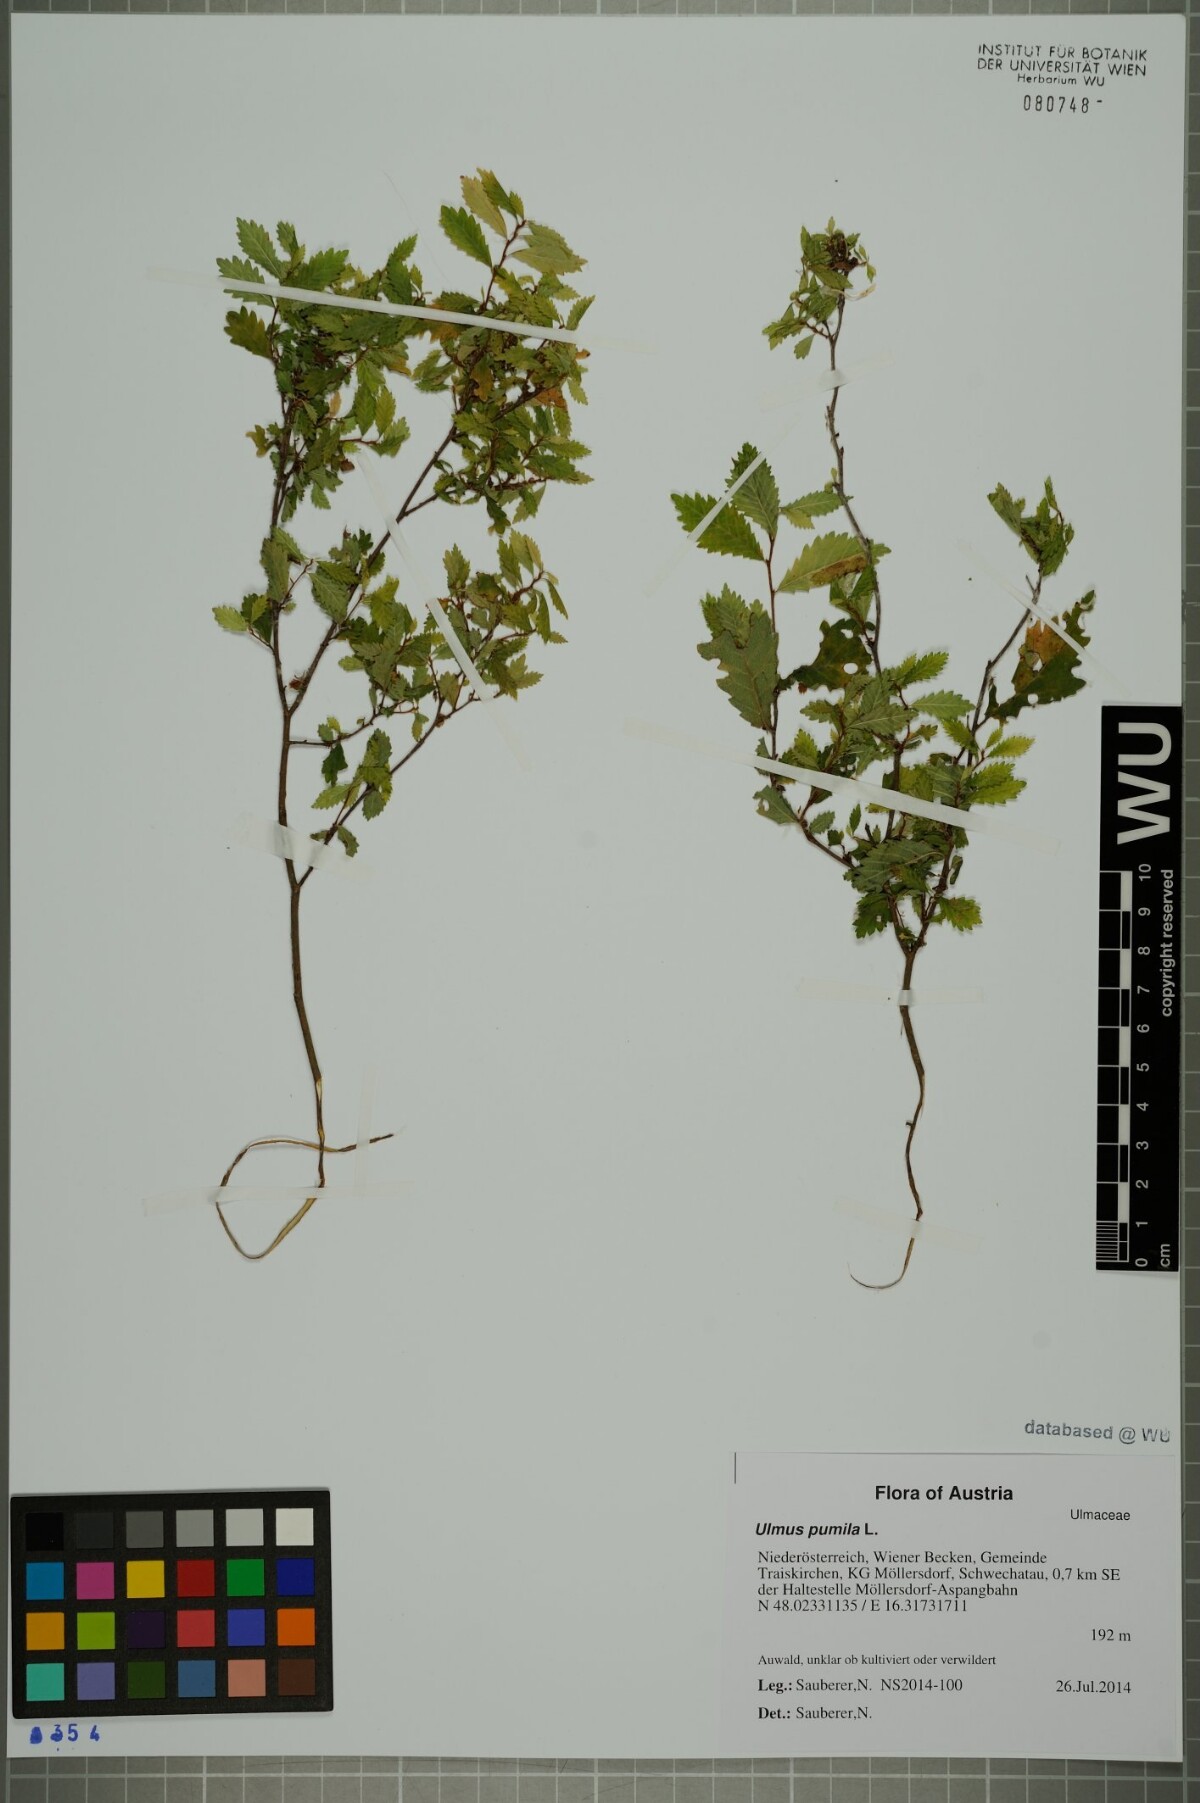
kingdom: Plantae
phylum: Tracheophyta
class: Magnoliopsida
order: Rosales
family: Ulmaceae
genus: Ulmus
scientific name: Ulmus pumila
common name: Siberian elm
